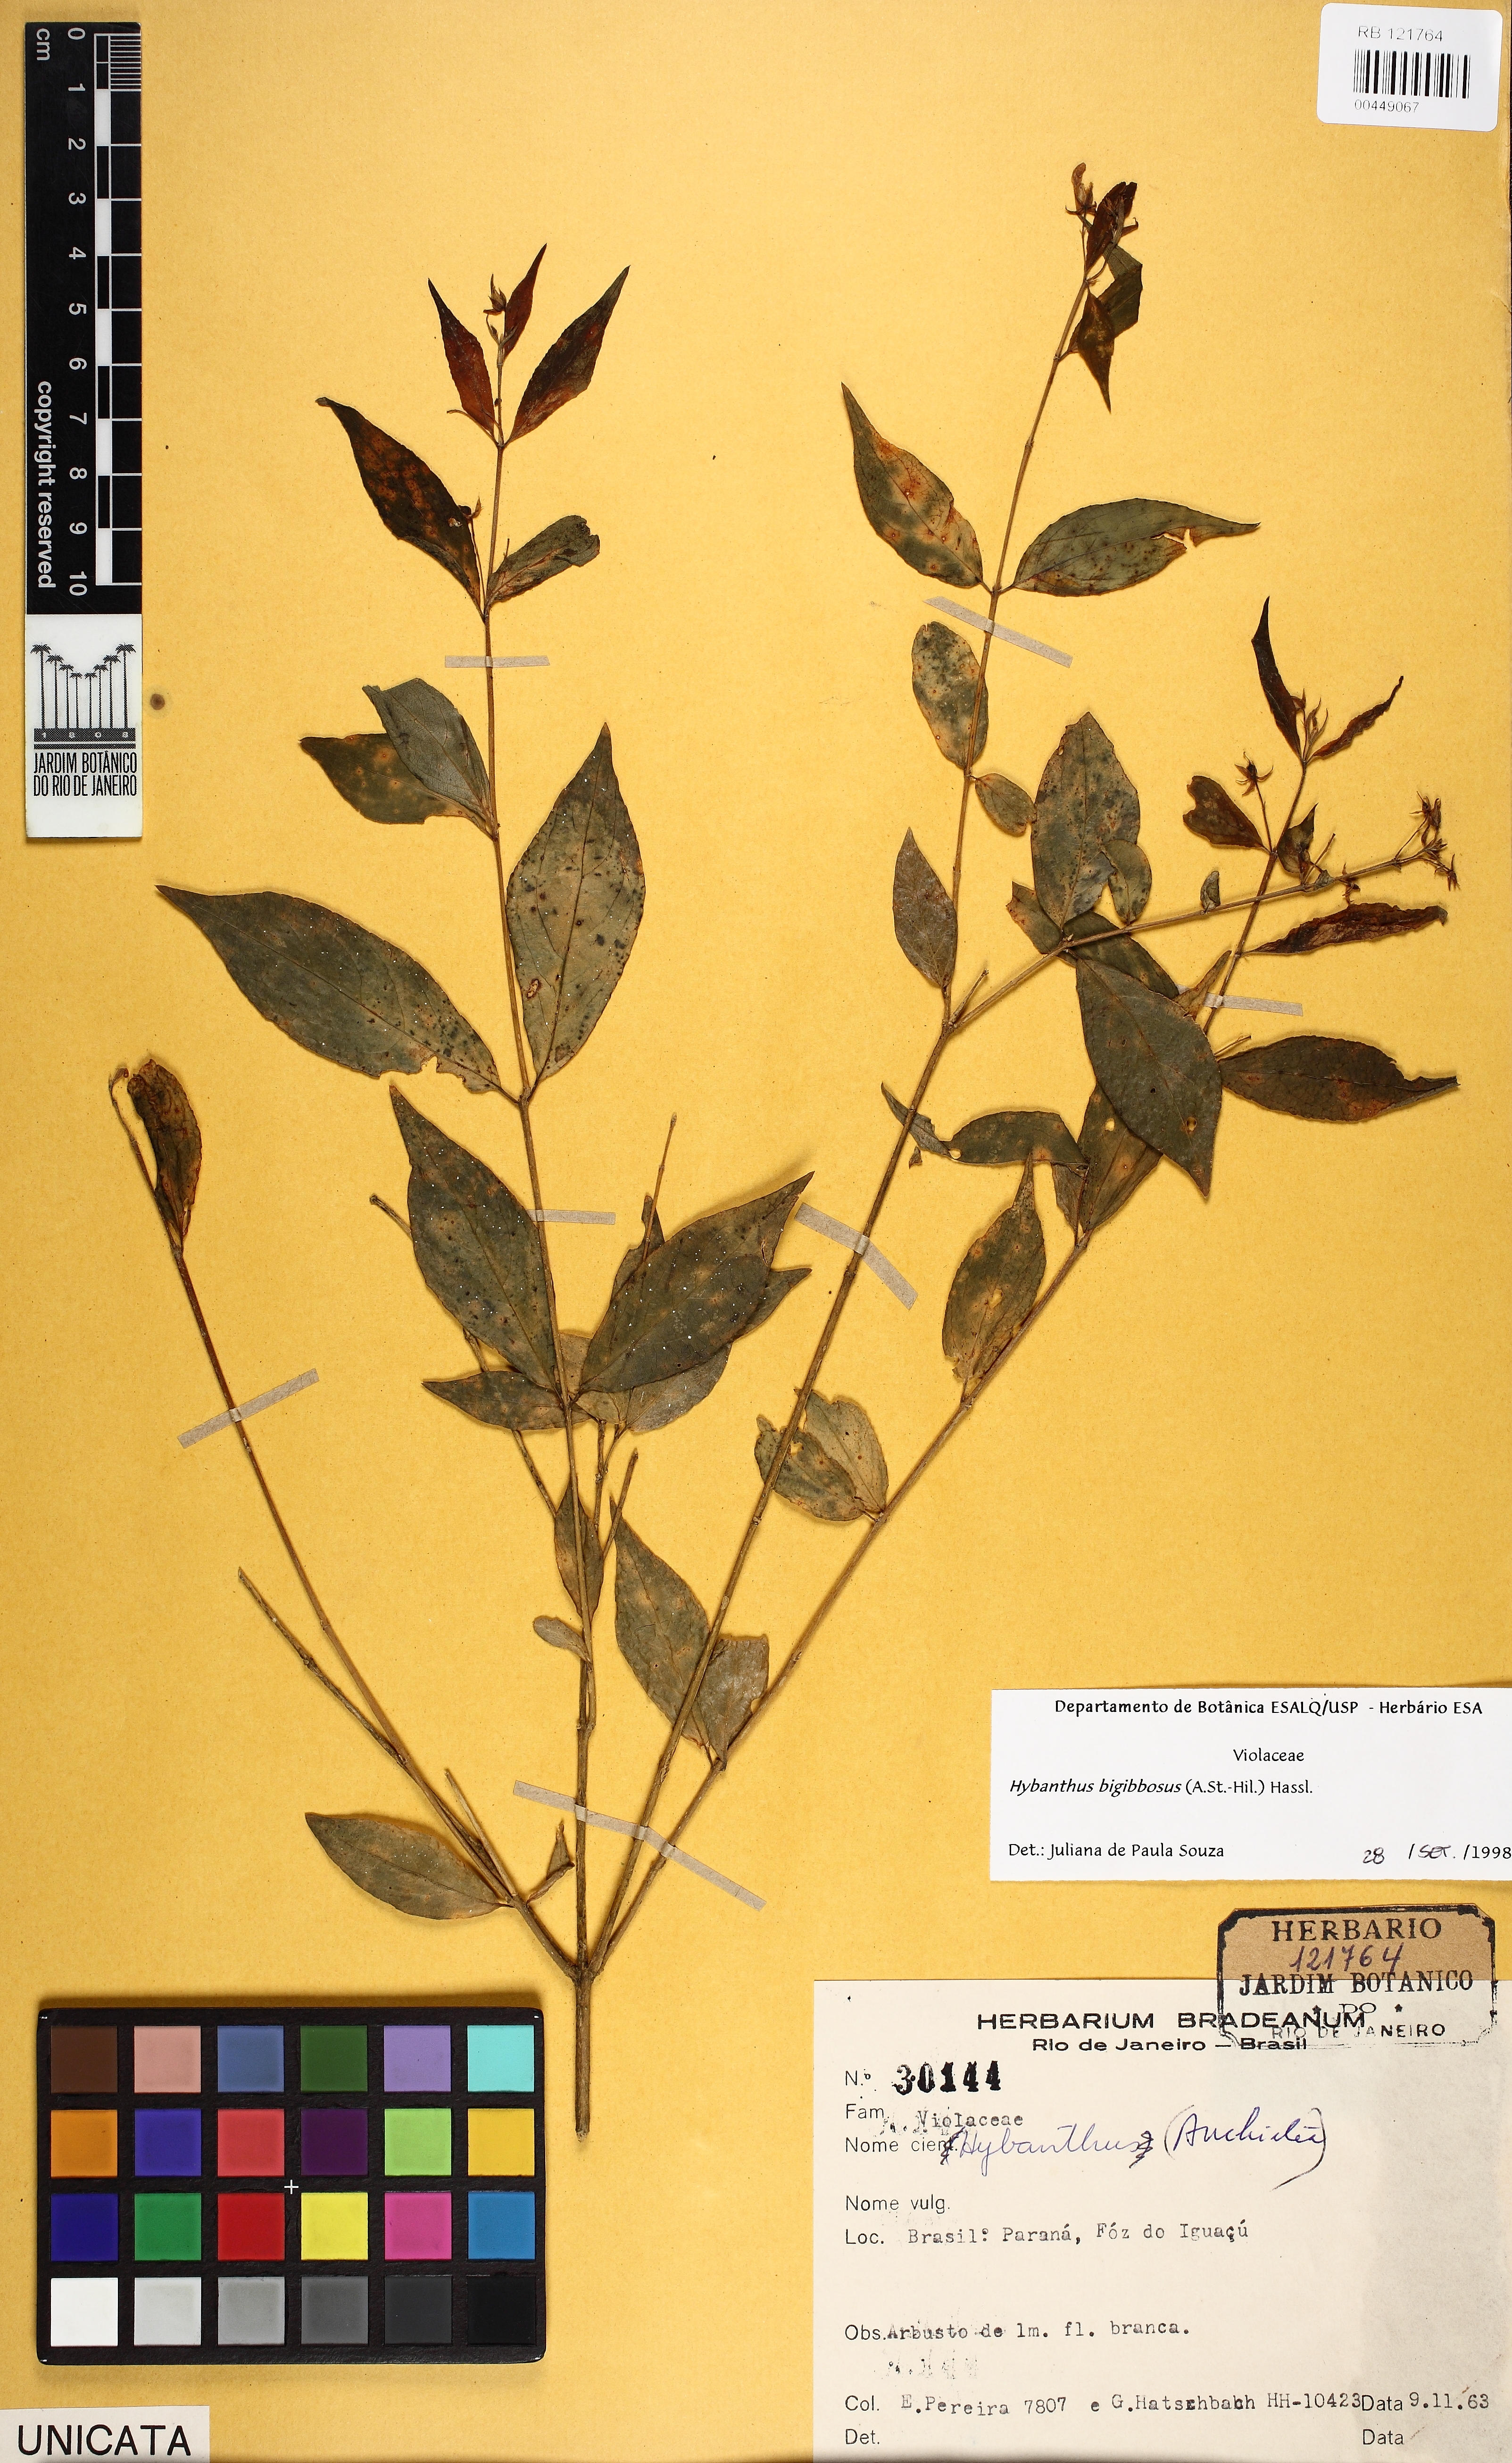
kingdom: Plantae
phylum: Tracheophyta
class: Magnoliopsida
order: Malpighiales
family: Violaceae
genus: Pombalia
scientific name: Pombalia bigibbosa
